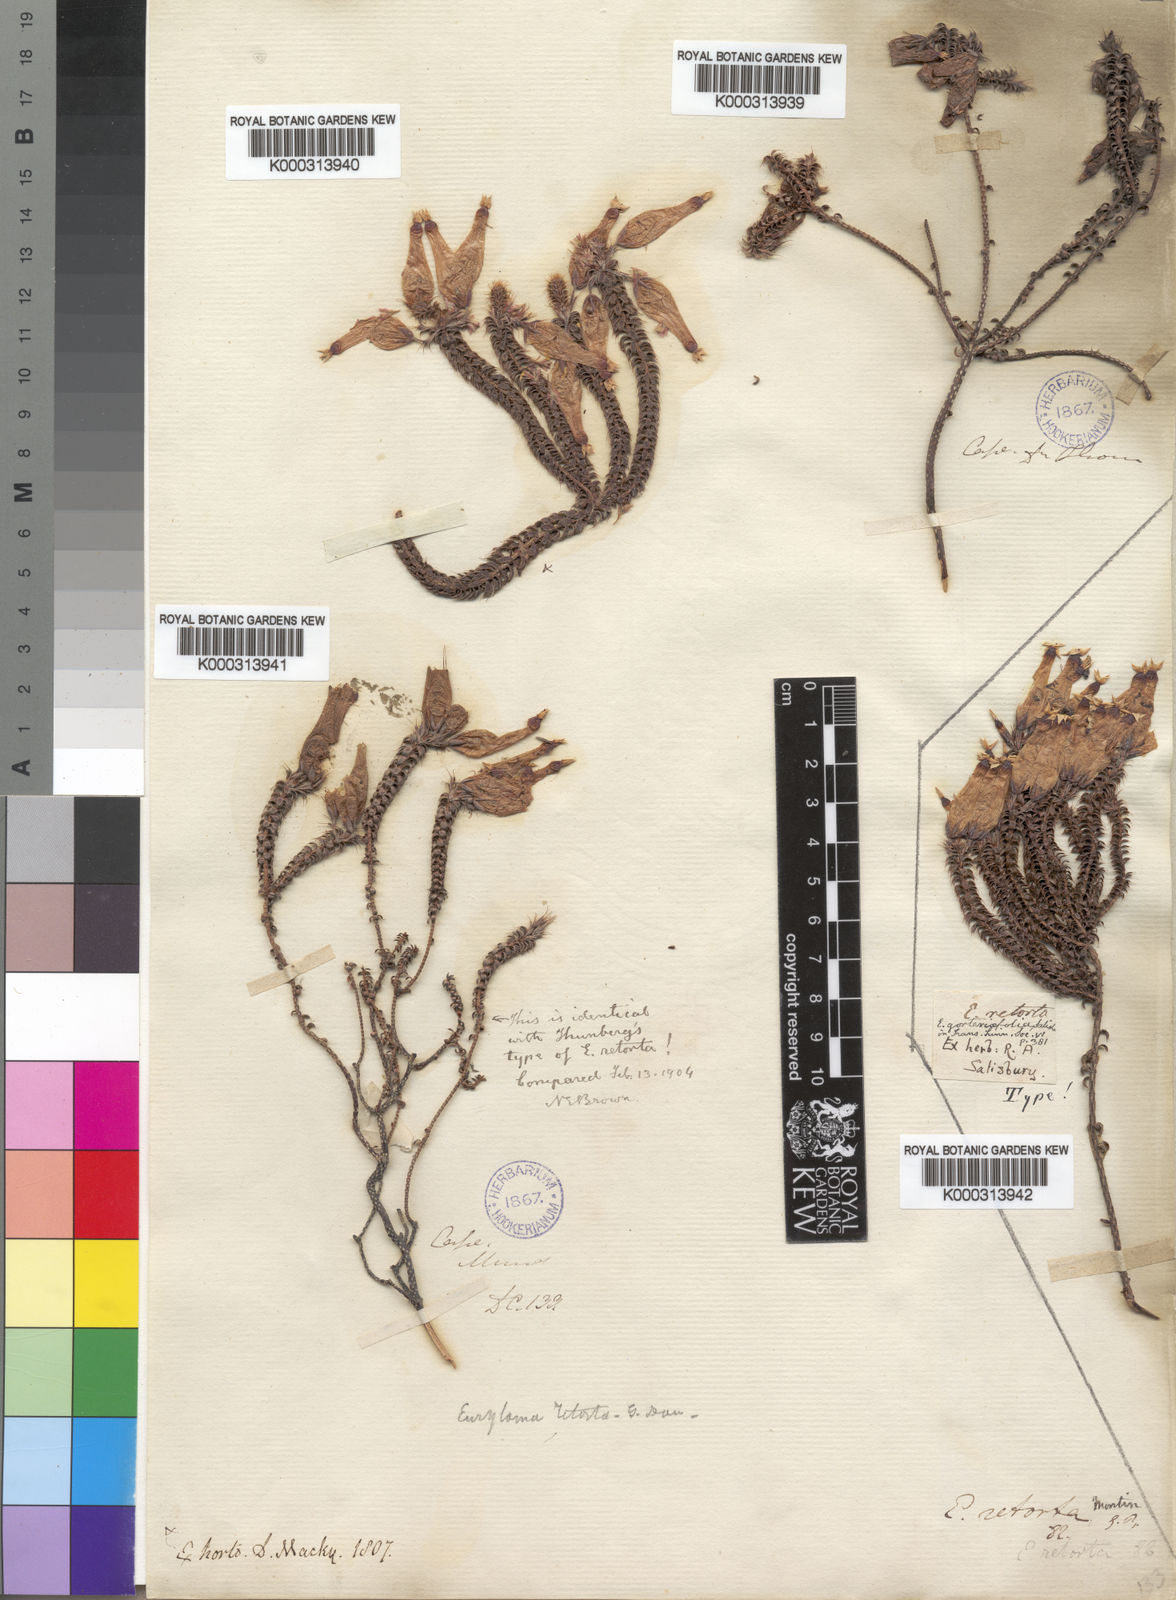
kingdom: Plantae
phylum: Tracheophyta
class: Magnoliopsida
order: Ericales
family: Ericaceae
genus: Erica
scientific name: Erica retorta
